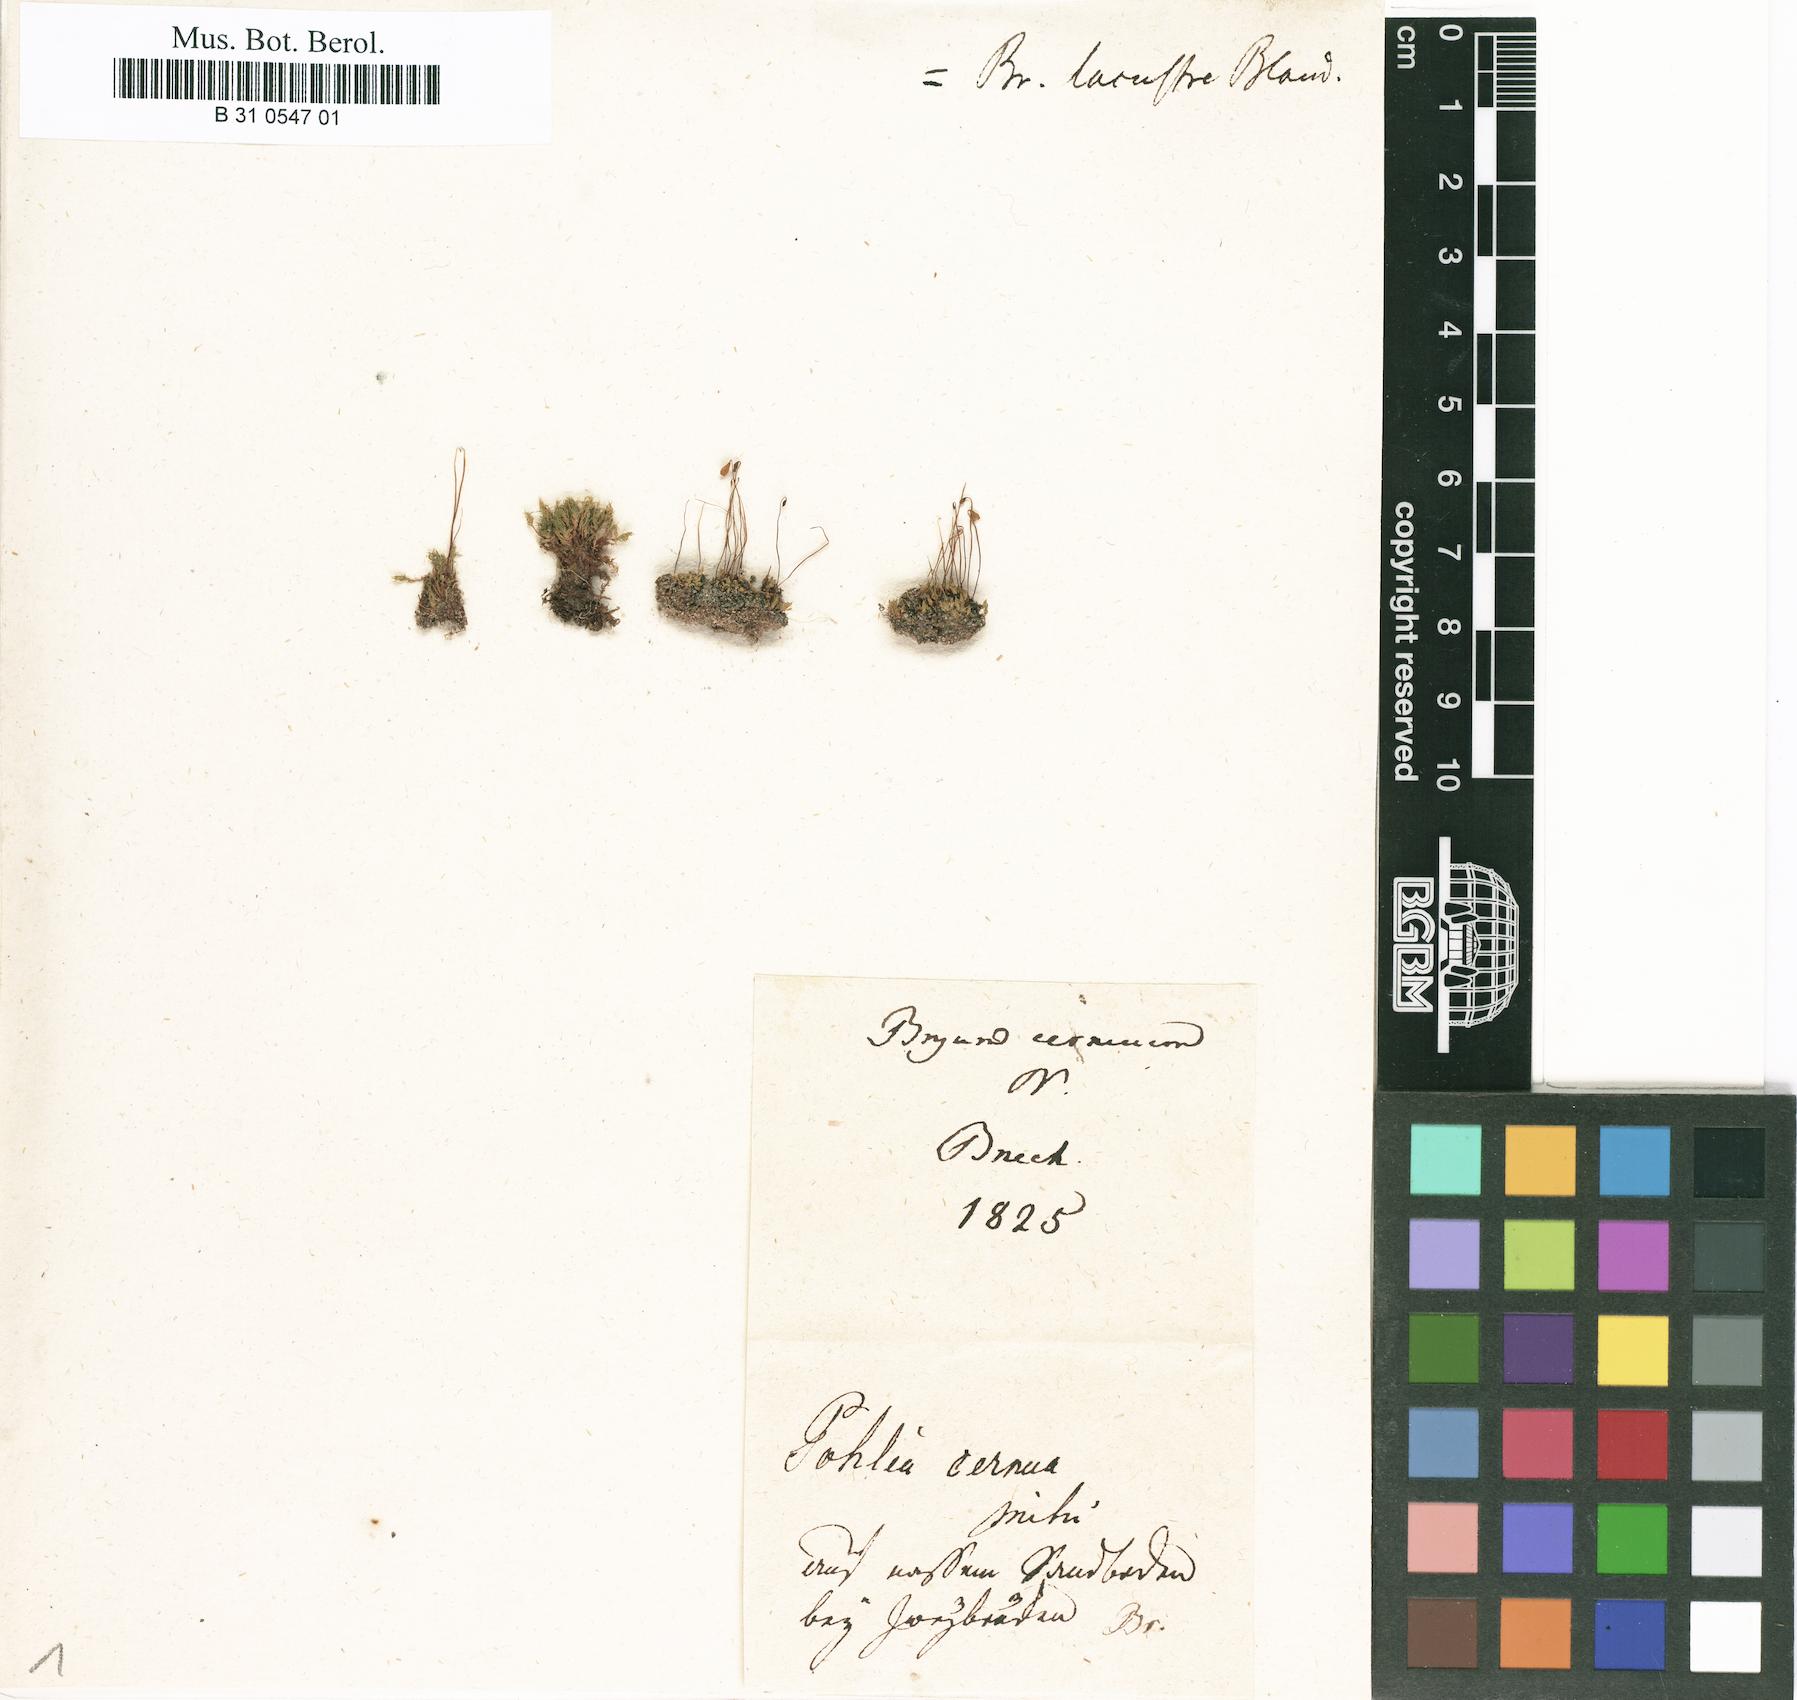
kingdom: Plantae
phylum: Bryophyta
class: Bryopsida
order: Bryales
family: Bryaceae
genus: Gemmabryum
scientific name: Gemmabryum caespiticium
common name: Handbell moss
